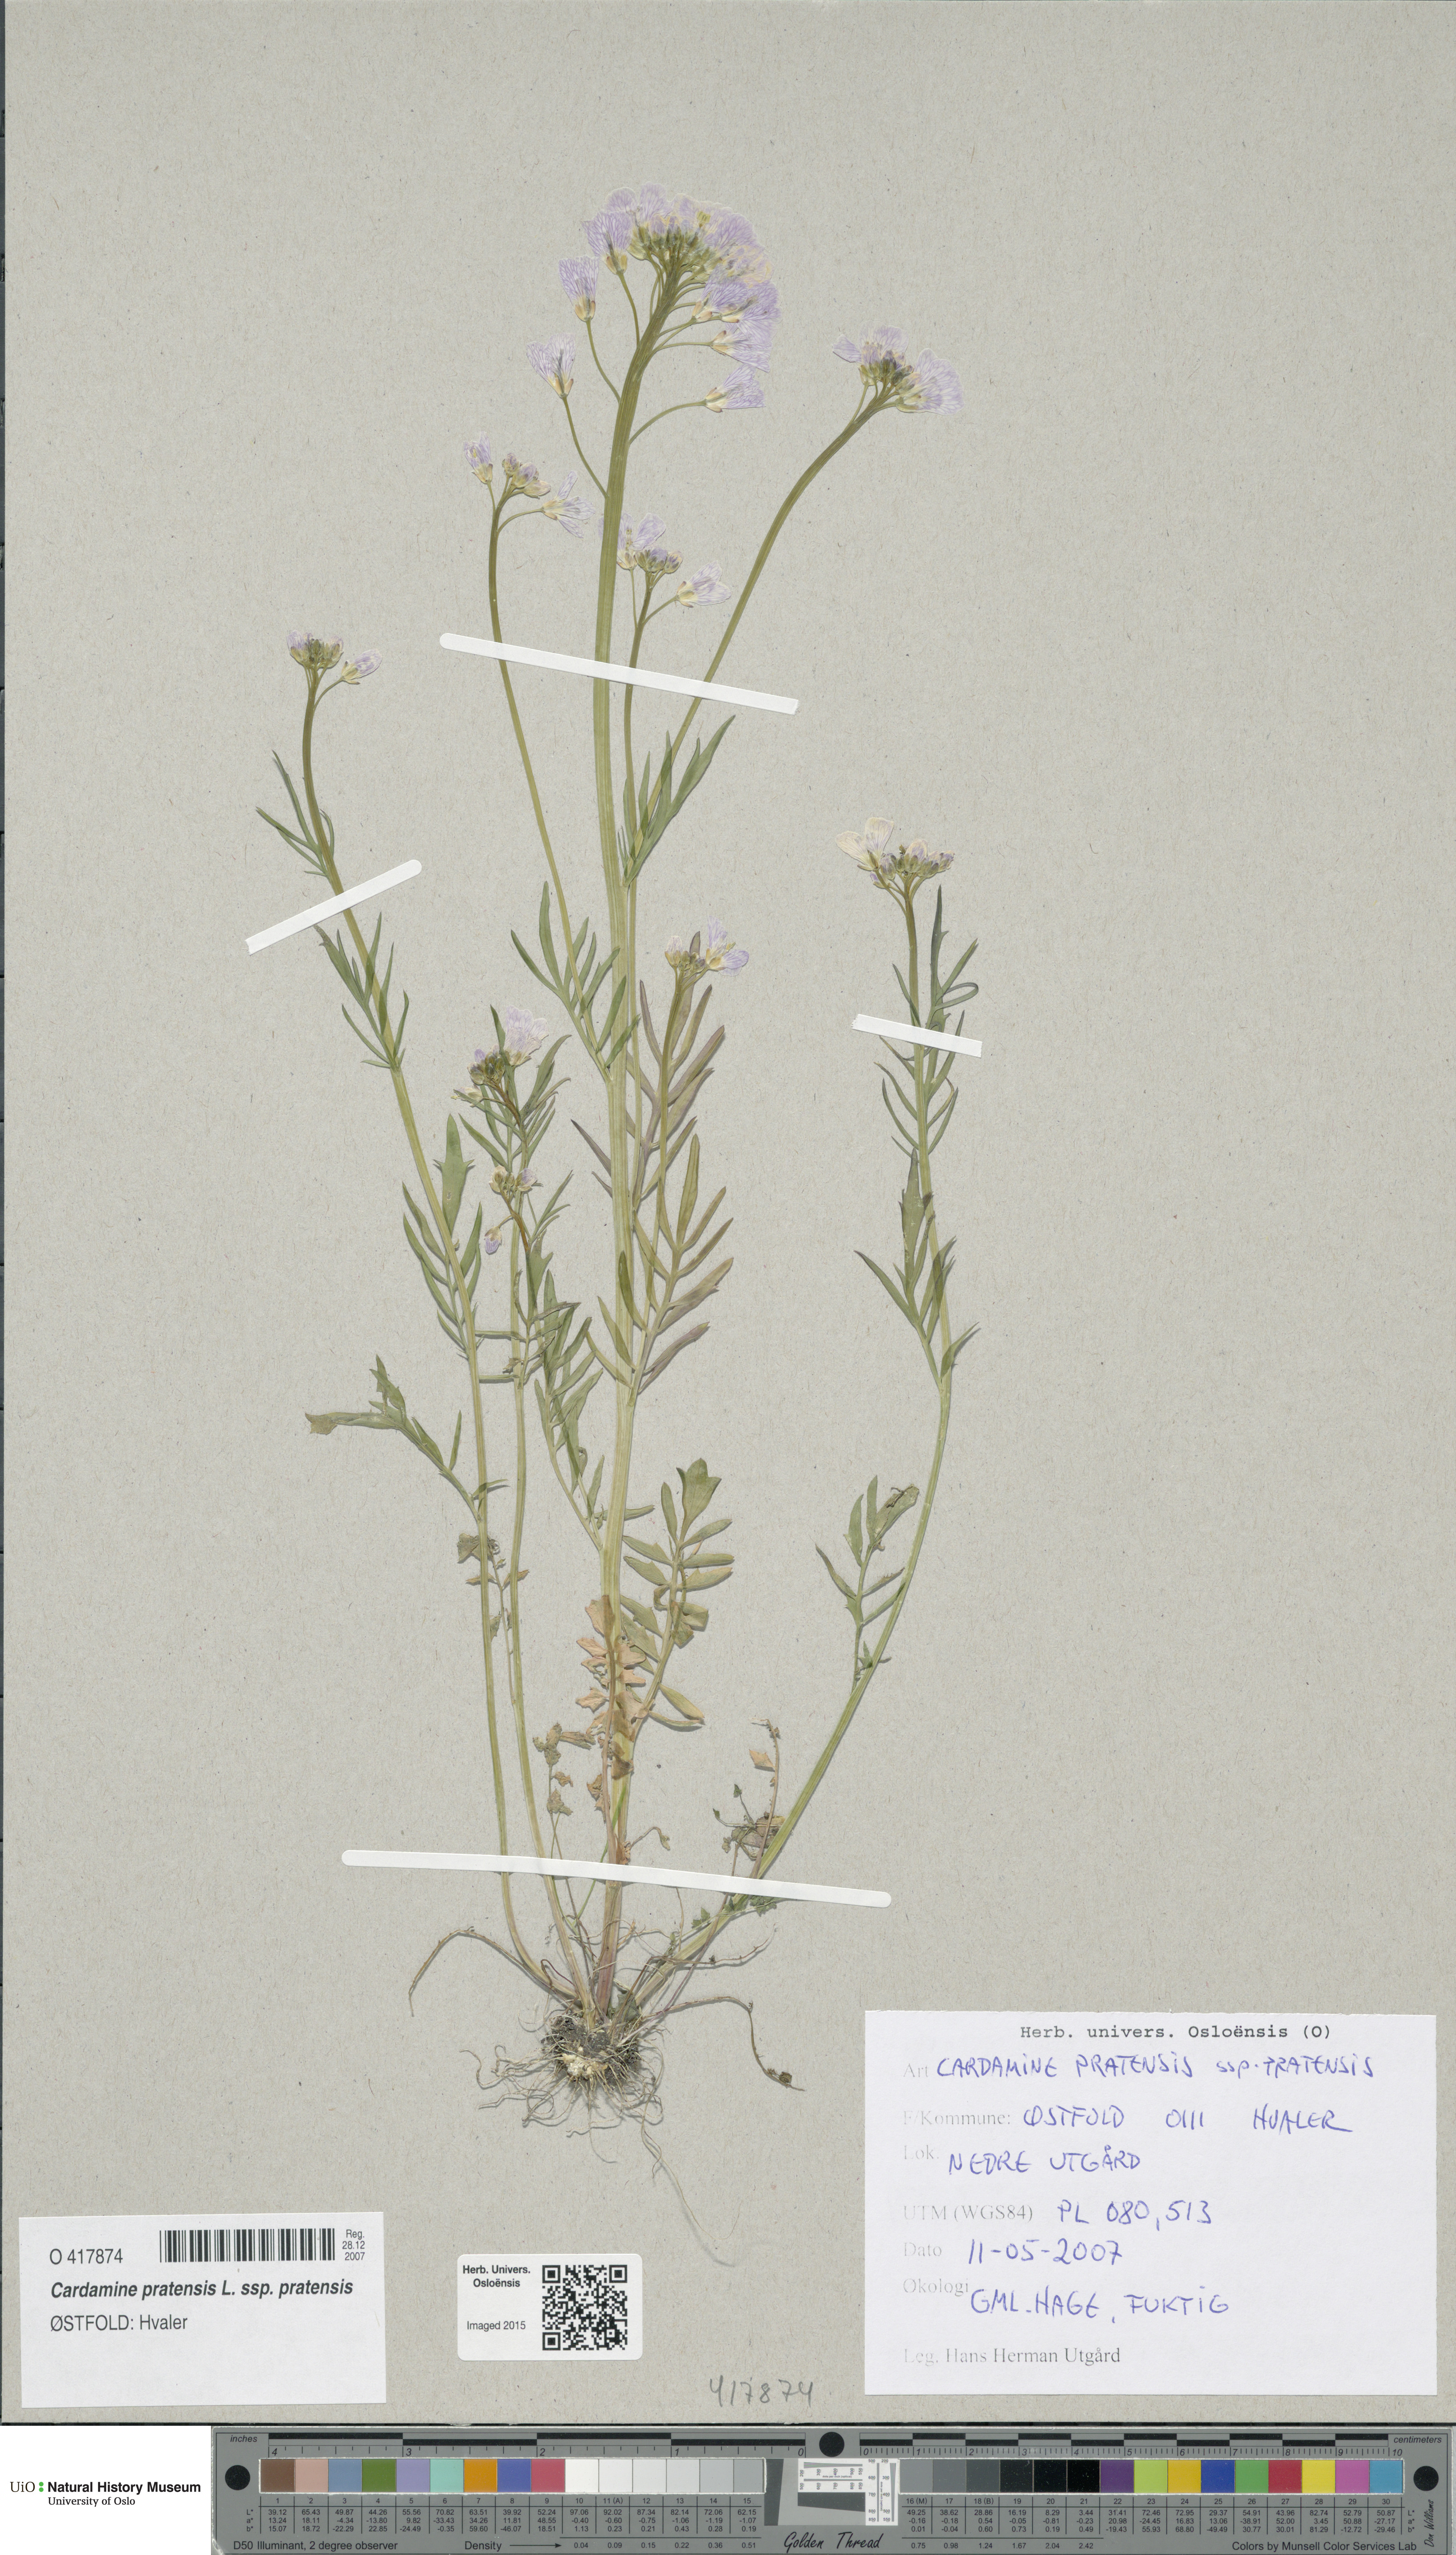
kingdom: Plantae
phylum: Tracheophyta
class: Magnoliopsida
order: Brassicales
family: Brassicaceae
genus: Cardamine
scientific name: Cardamine pratensis
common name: Cuckoo flower
